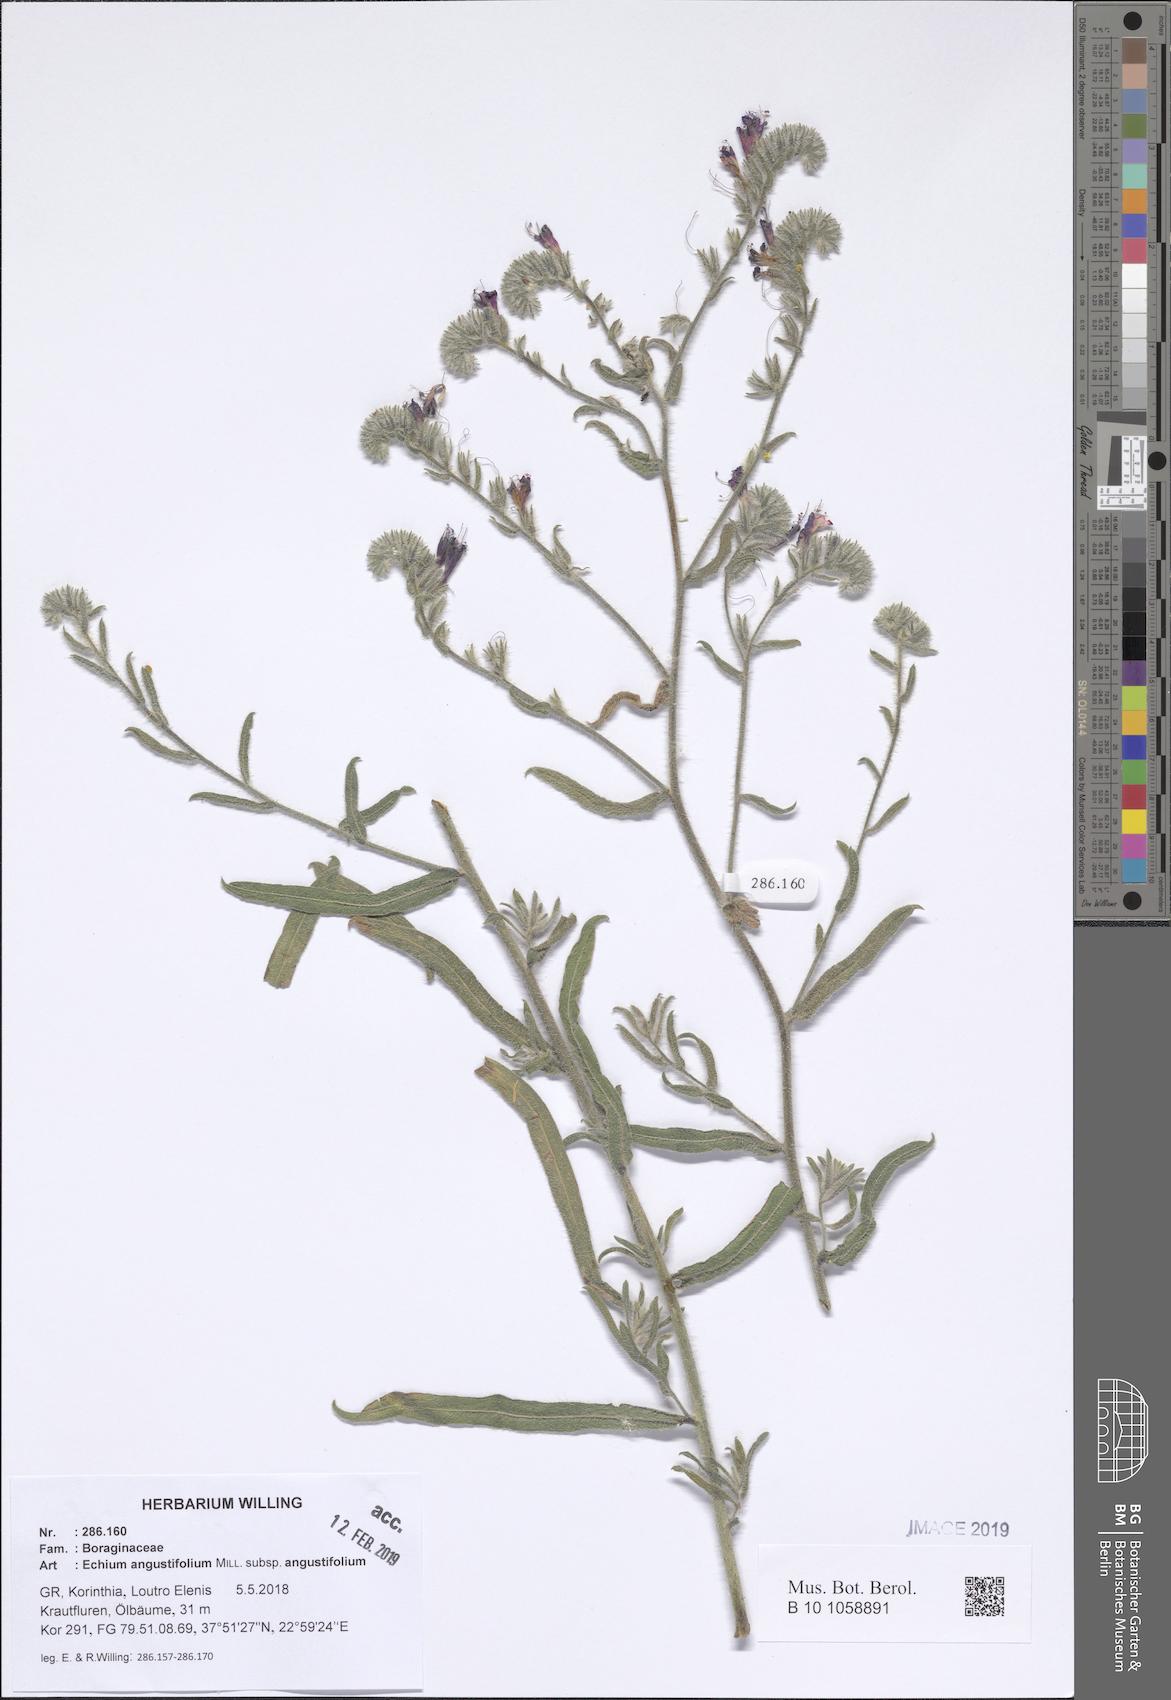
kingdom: Plantae
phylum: Tracheophyta
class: Magnoliopsida
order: Boraginales
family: Boraginaceae
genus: Echium
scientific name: Echium angustifolium
